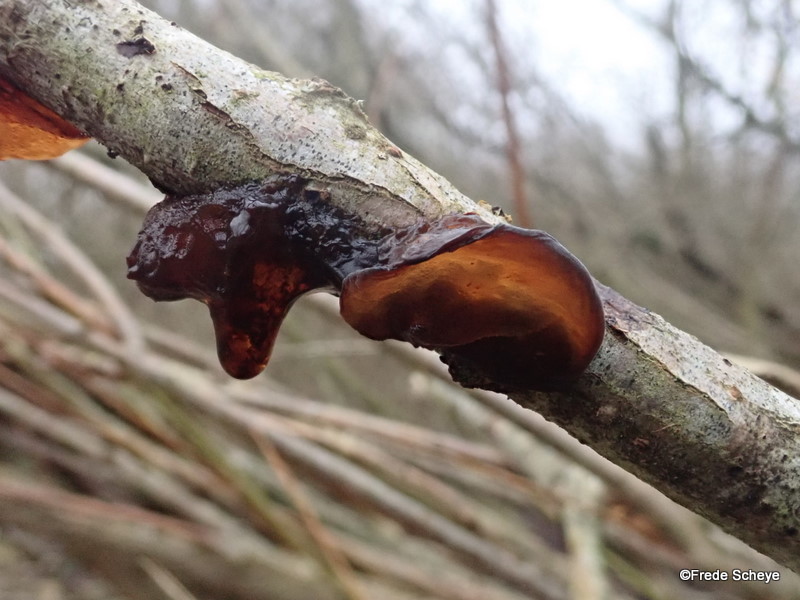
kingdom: Fungi
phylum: Basidiomycota
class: Agaricomycetes
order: Auriculariales
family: Auriculariaceae
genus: Exidia
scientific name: Exidia recisa
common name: pile-bævretop
